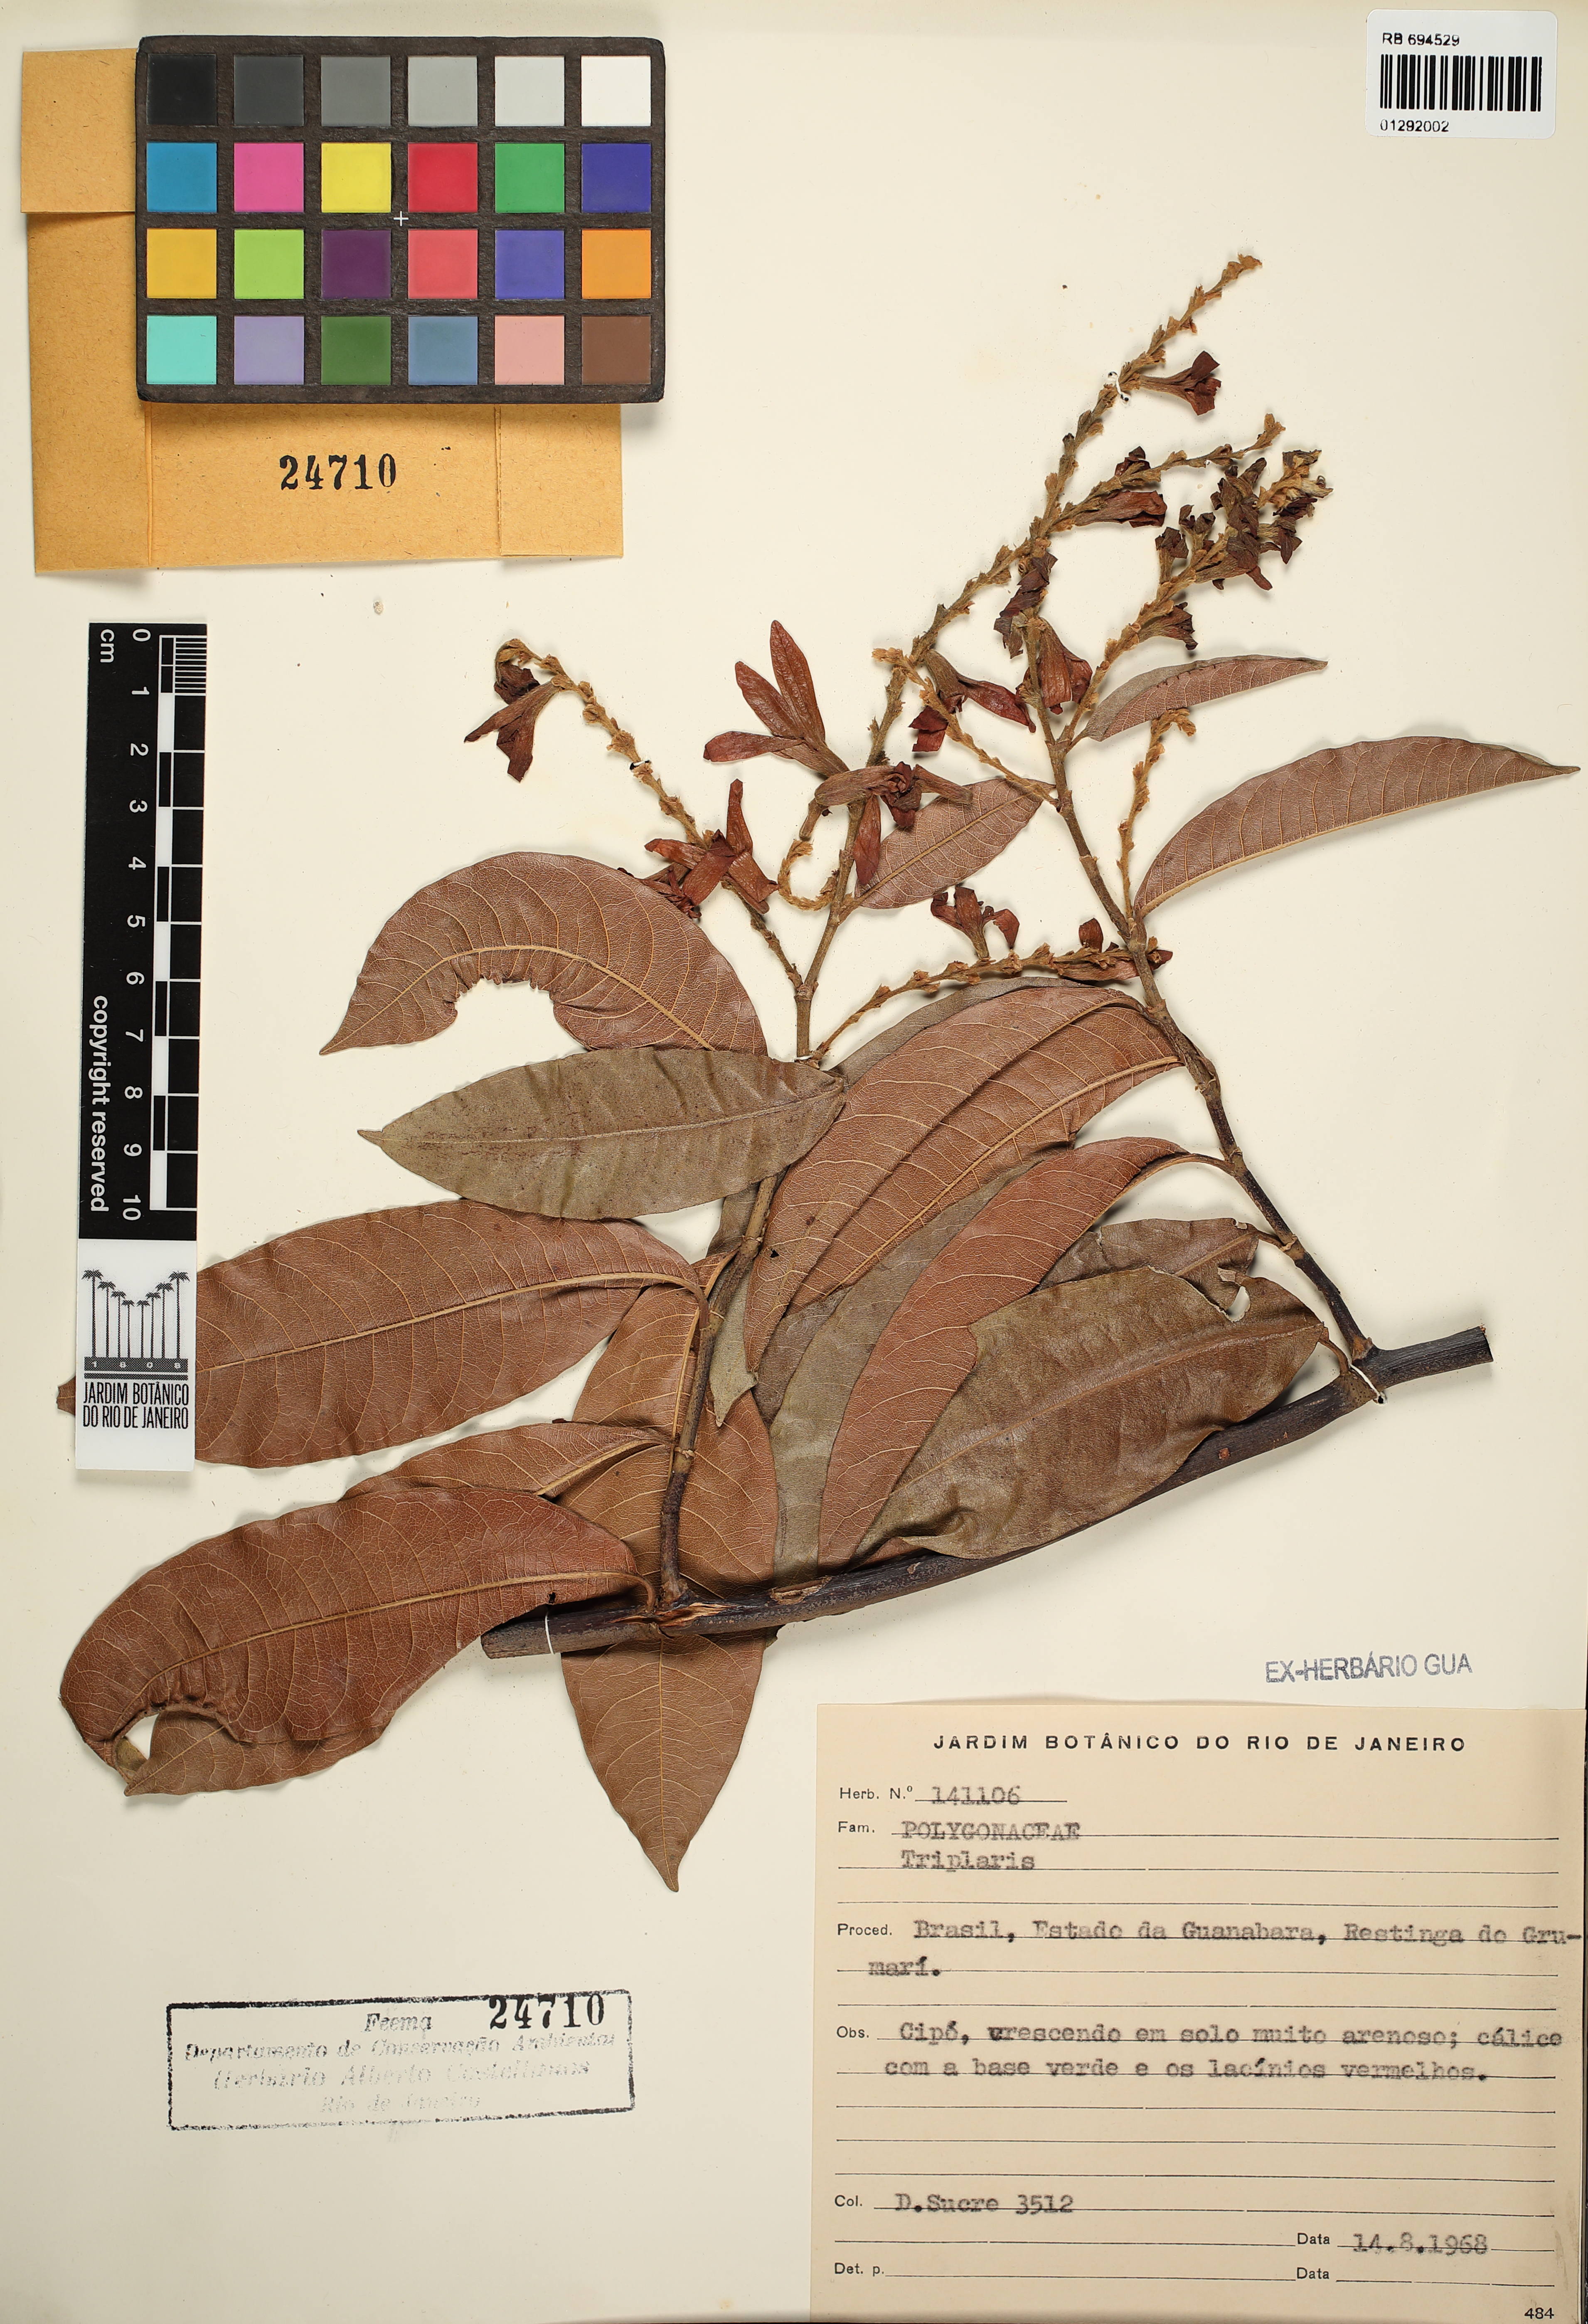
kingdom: Plantae
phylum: Tracheophyta
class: Magnoliopsida
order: Caryophyllales
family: Polygonaceae
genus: Triplaris
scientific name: Triplaris
